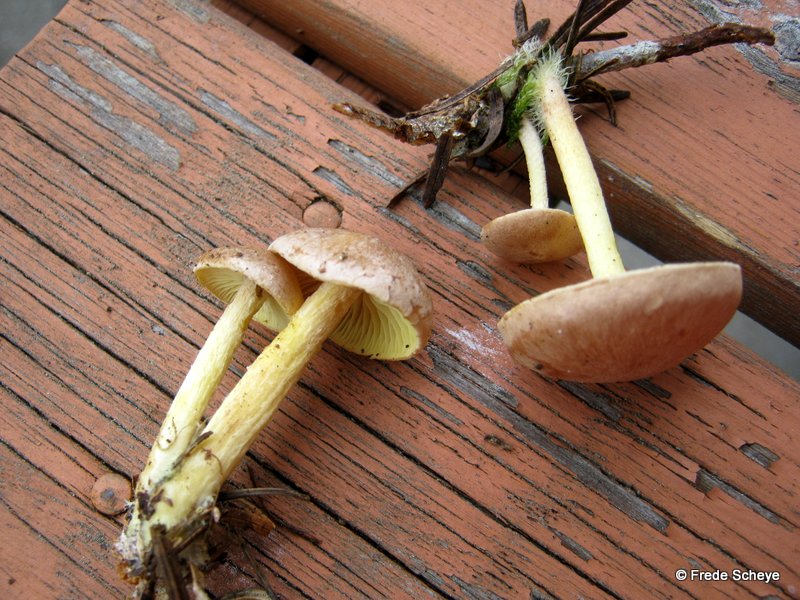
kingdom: Fungi
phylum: Basidiomycota
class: Agaricomycetes
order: Agaricales
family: Omphalotaceae
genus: Collybiopsis
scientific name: Collybiopsis peronata
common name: bestøvlet fladhat
